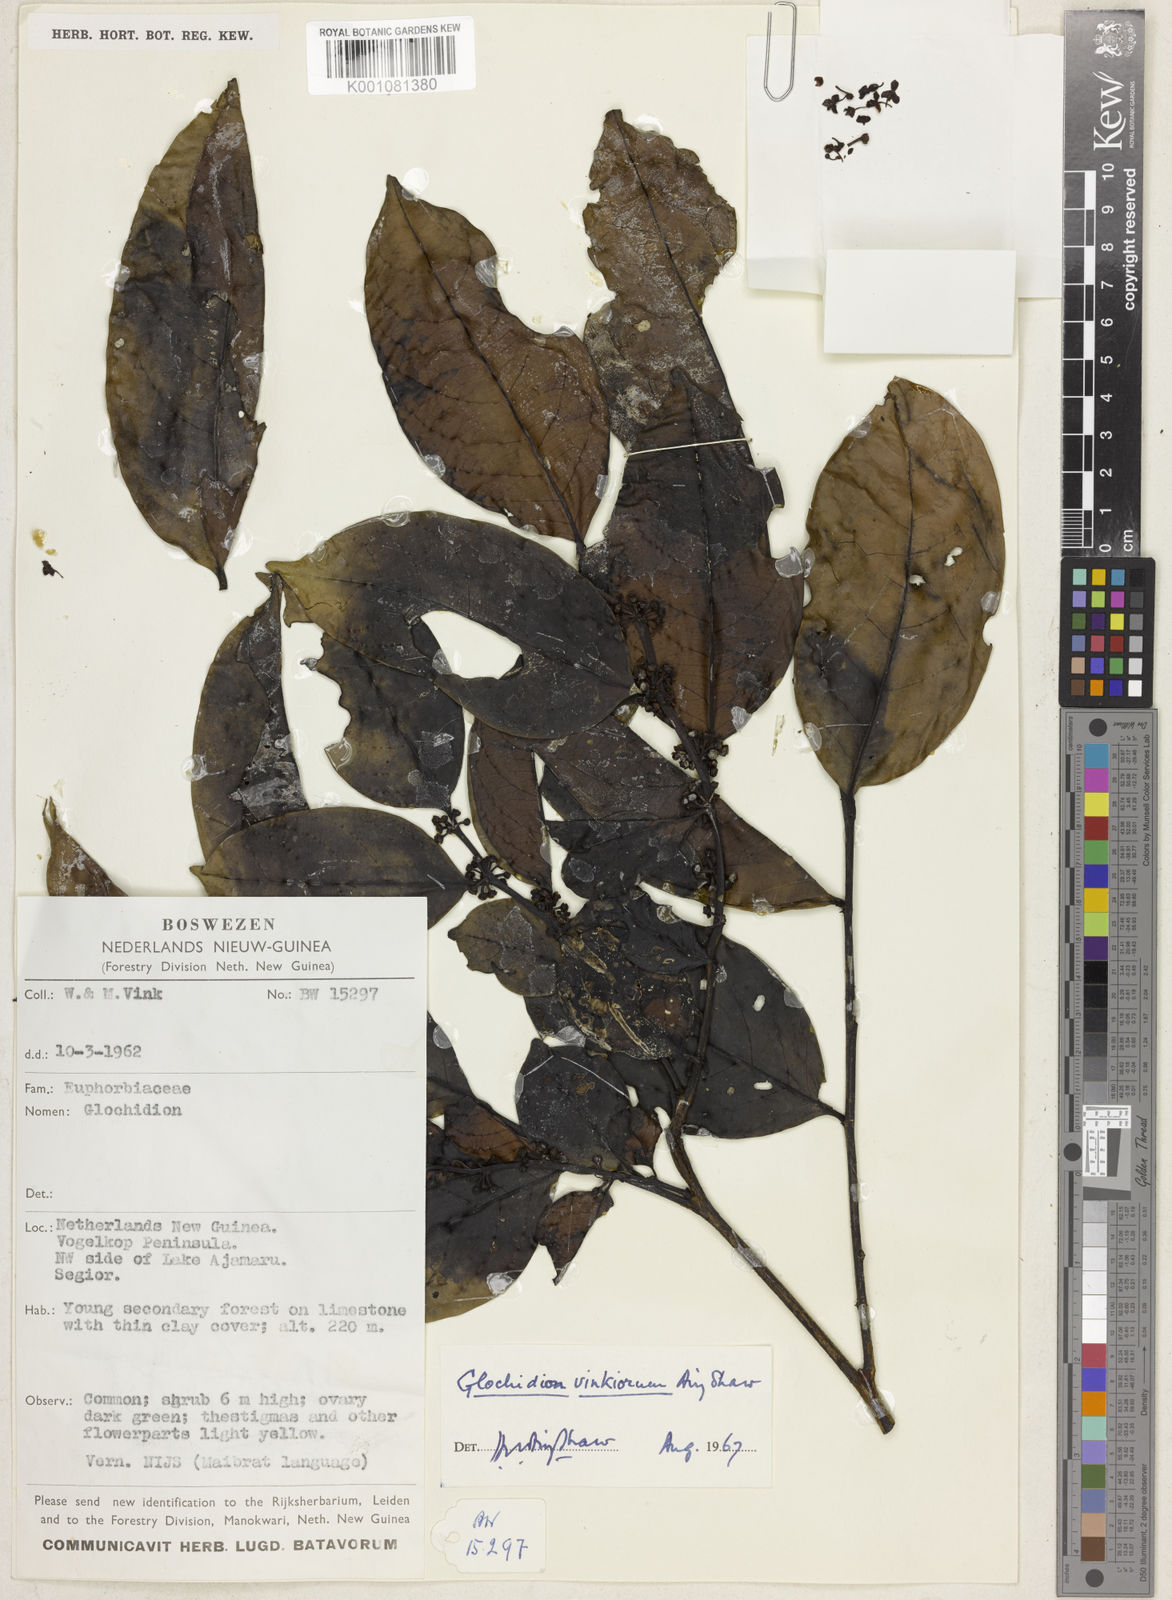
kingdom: Plantae
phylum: Tracheophyta
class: Magnoliopsida
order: Malpighiales
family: Phyllanthaceae
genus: Glochidion
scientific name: Glochidion novoguineense
